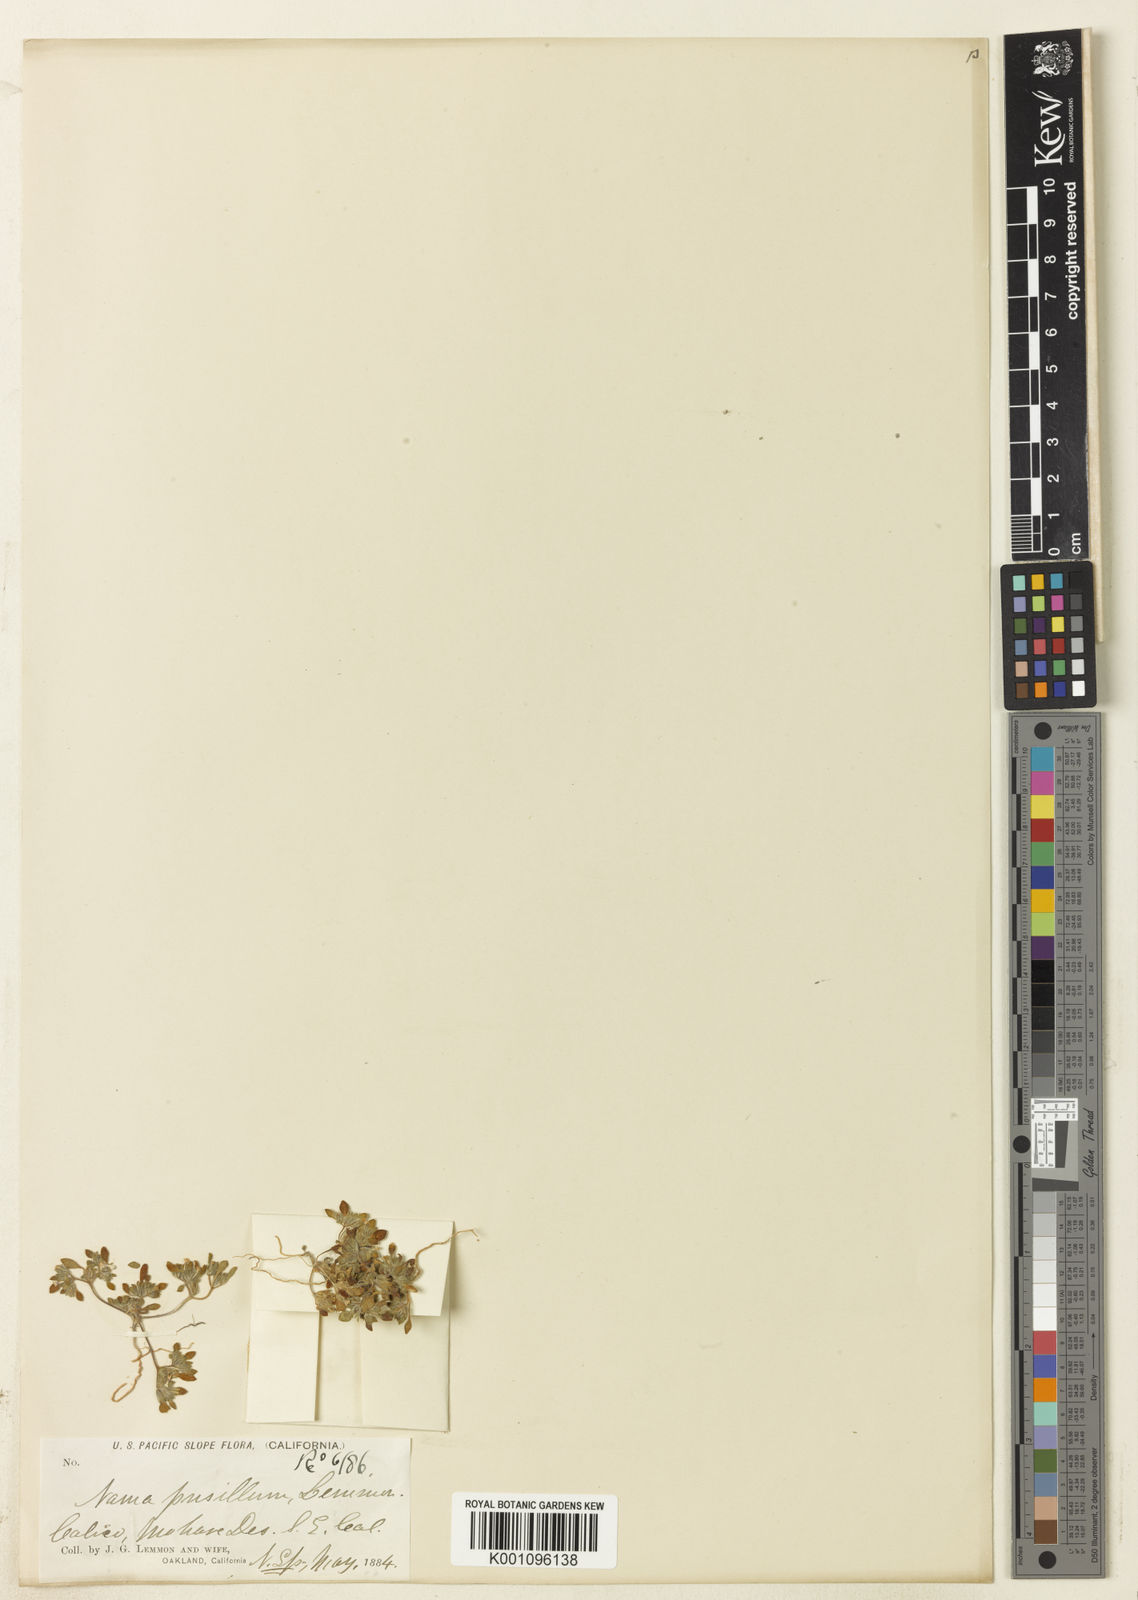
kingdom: Plantae
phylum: Tracheophyta
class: Magnoliopsida
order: Boraginales
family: Namaceae
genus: Nama
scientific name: Nama
